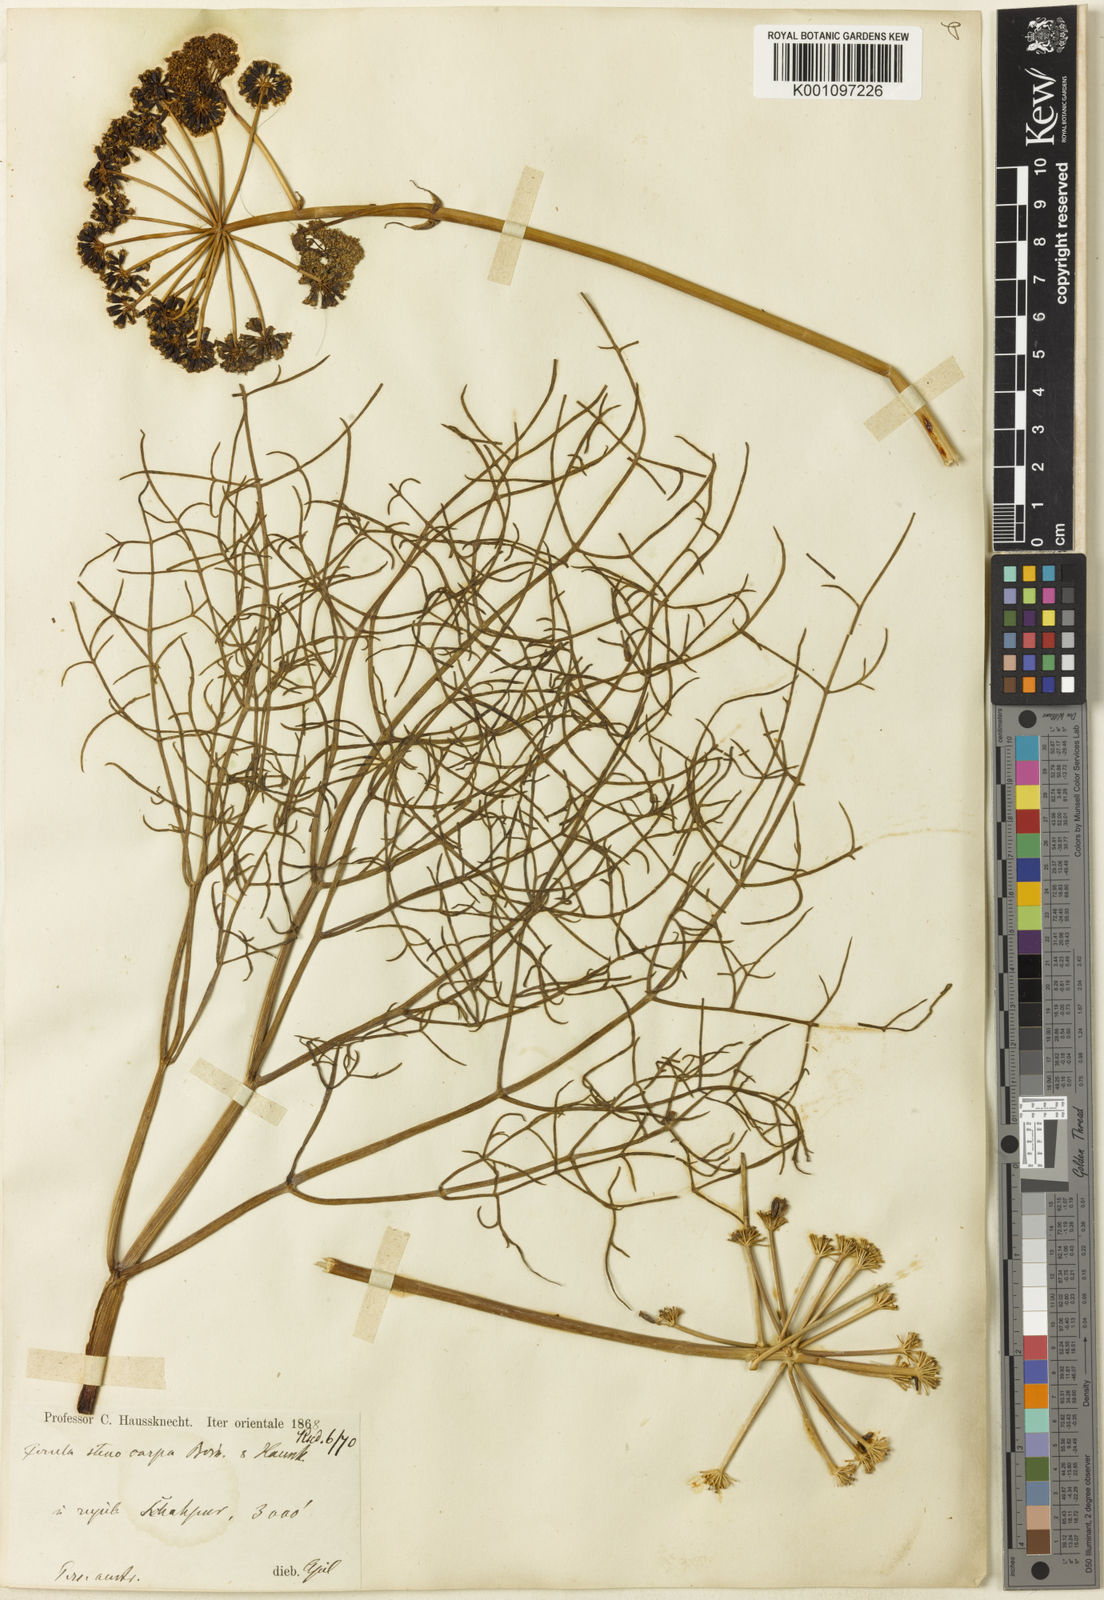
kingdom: Plantae
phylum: Tracheophyta
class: Magnoliopsida
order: Apiales
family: Apiaceae
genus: Ferula
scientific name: Ferula stenocarpa
